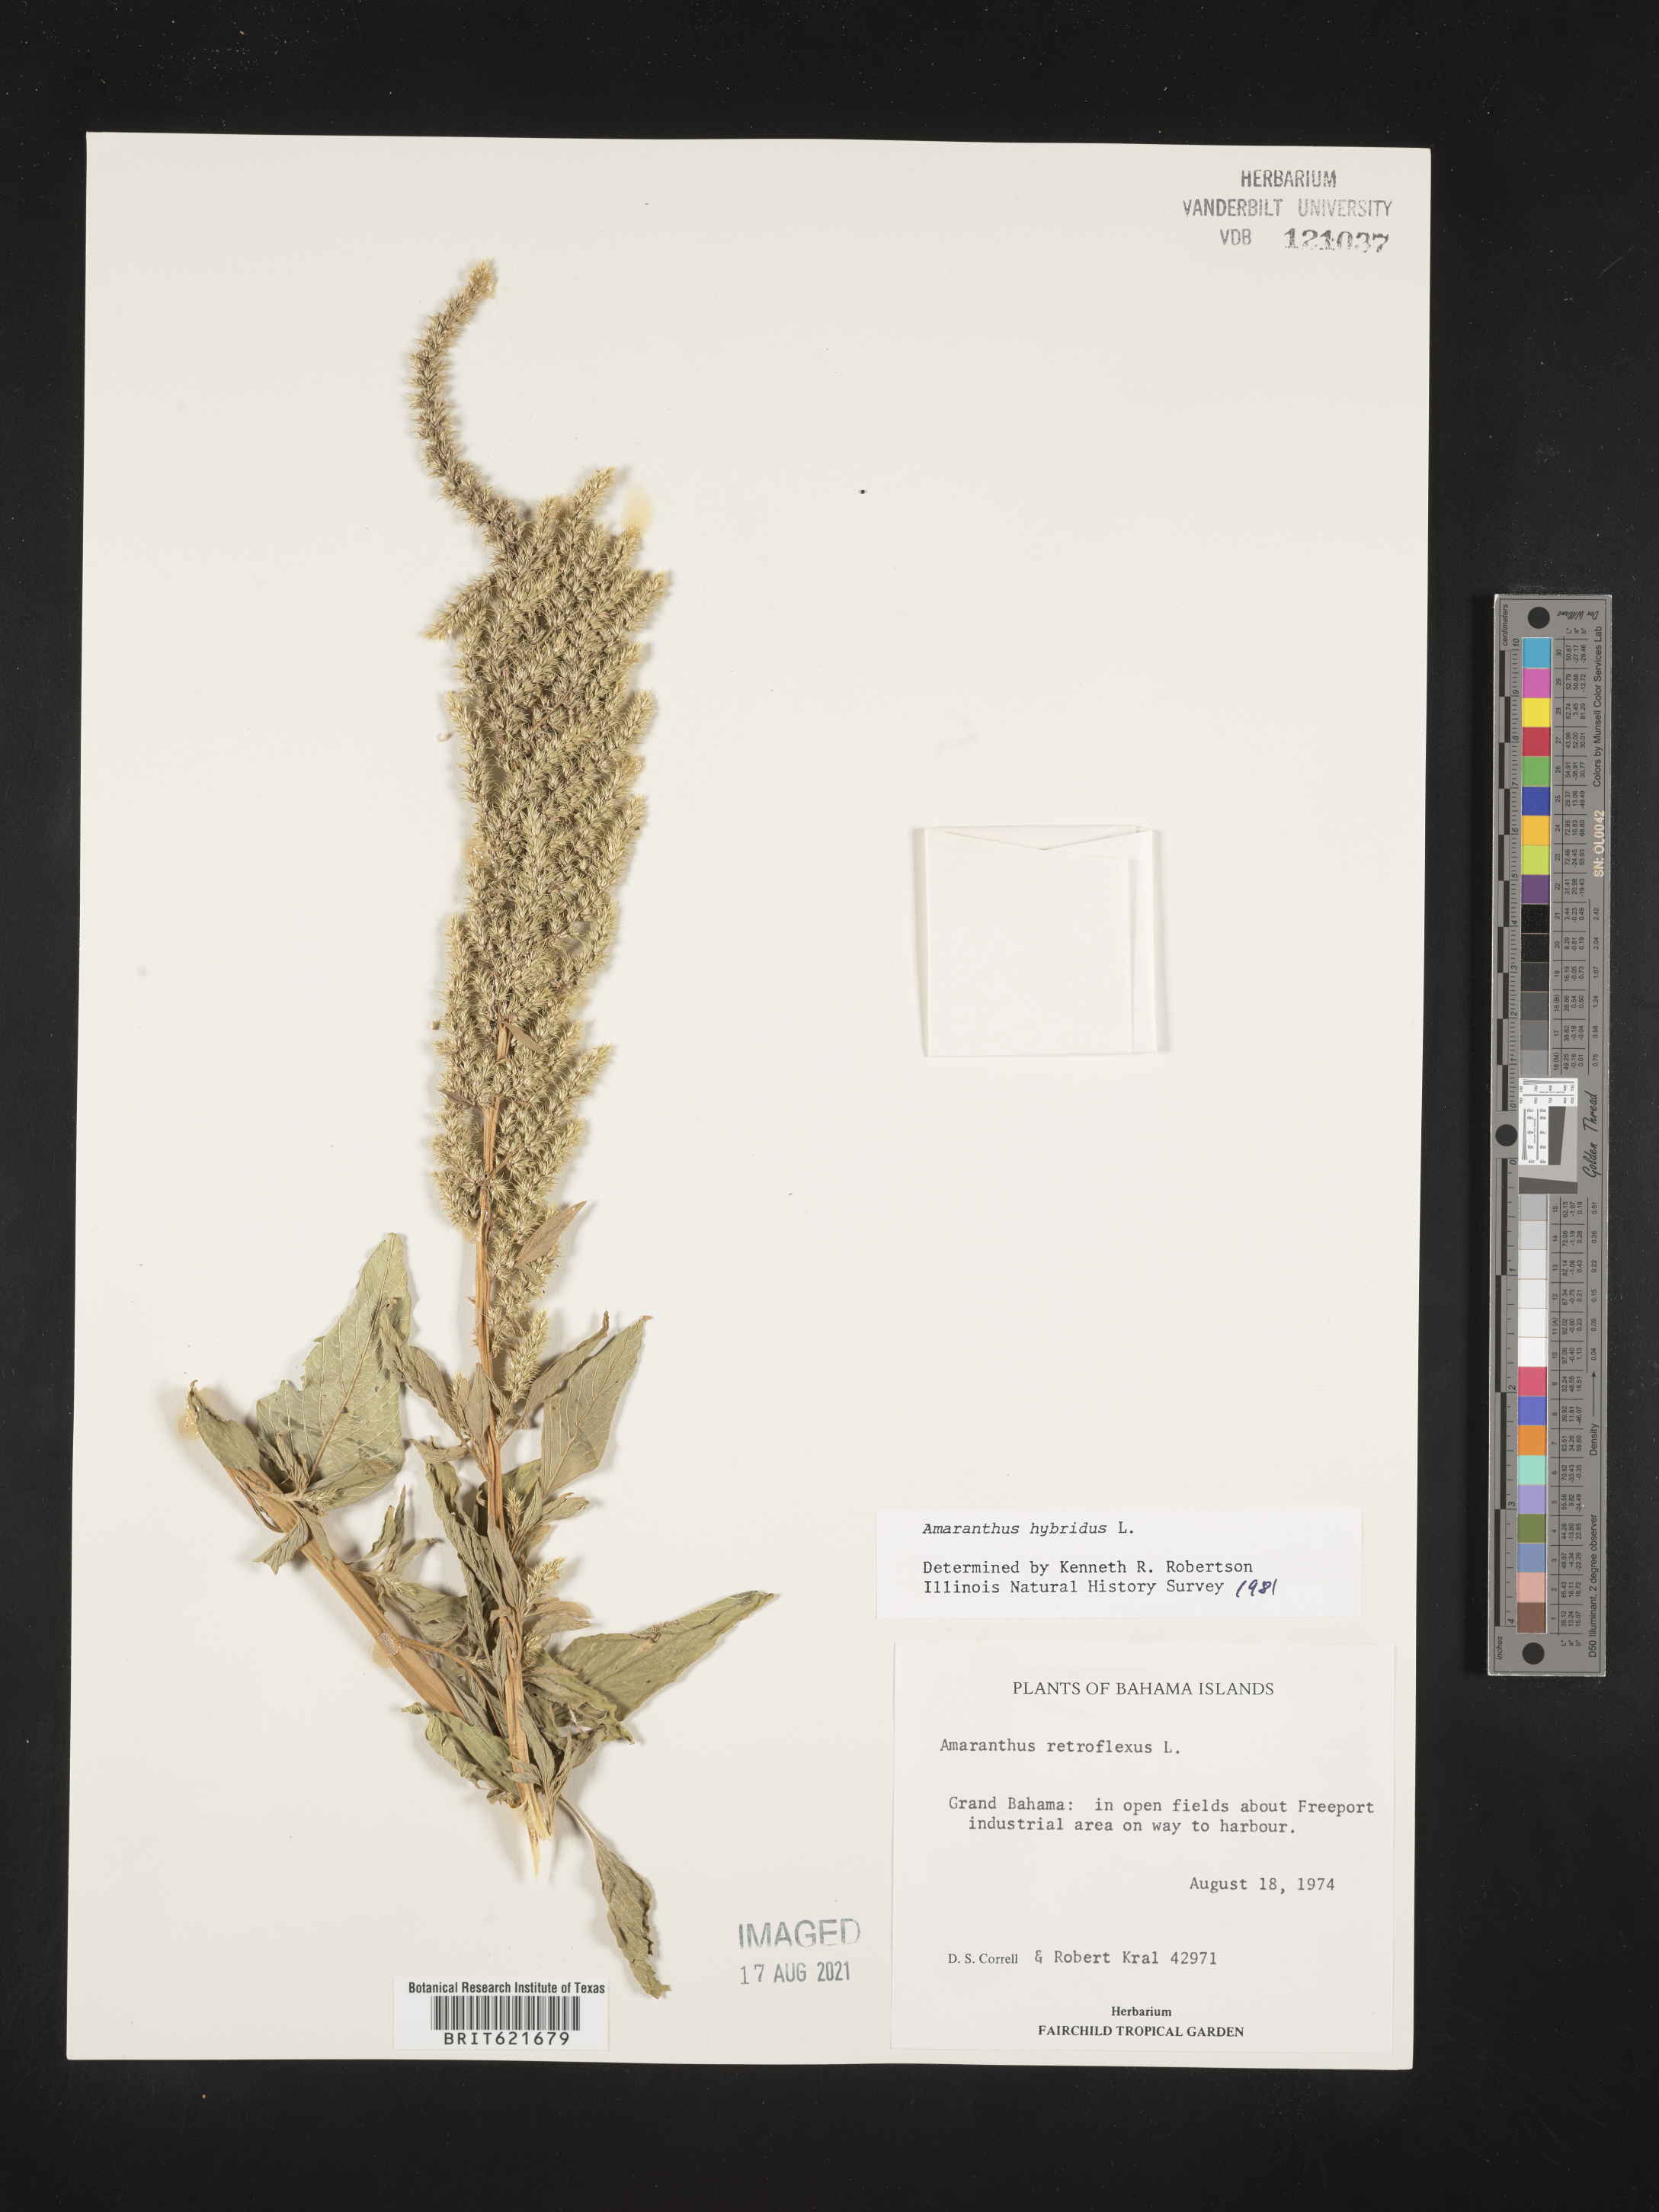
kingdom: Plantae
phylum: Tracheophyta
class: Magnoliopsida
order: Caryophyllales
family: Amaranthaceae
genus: Amaranthus
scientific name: Amaranthus retroflexus
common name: Redroot amaranth
